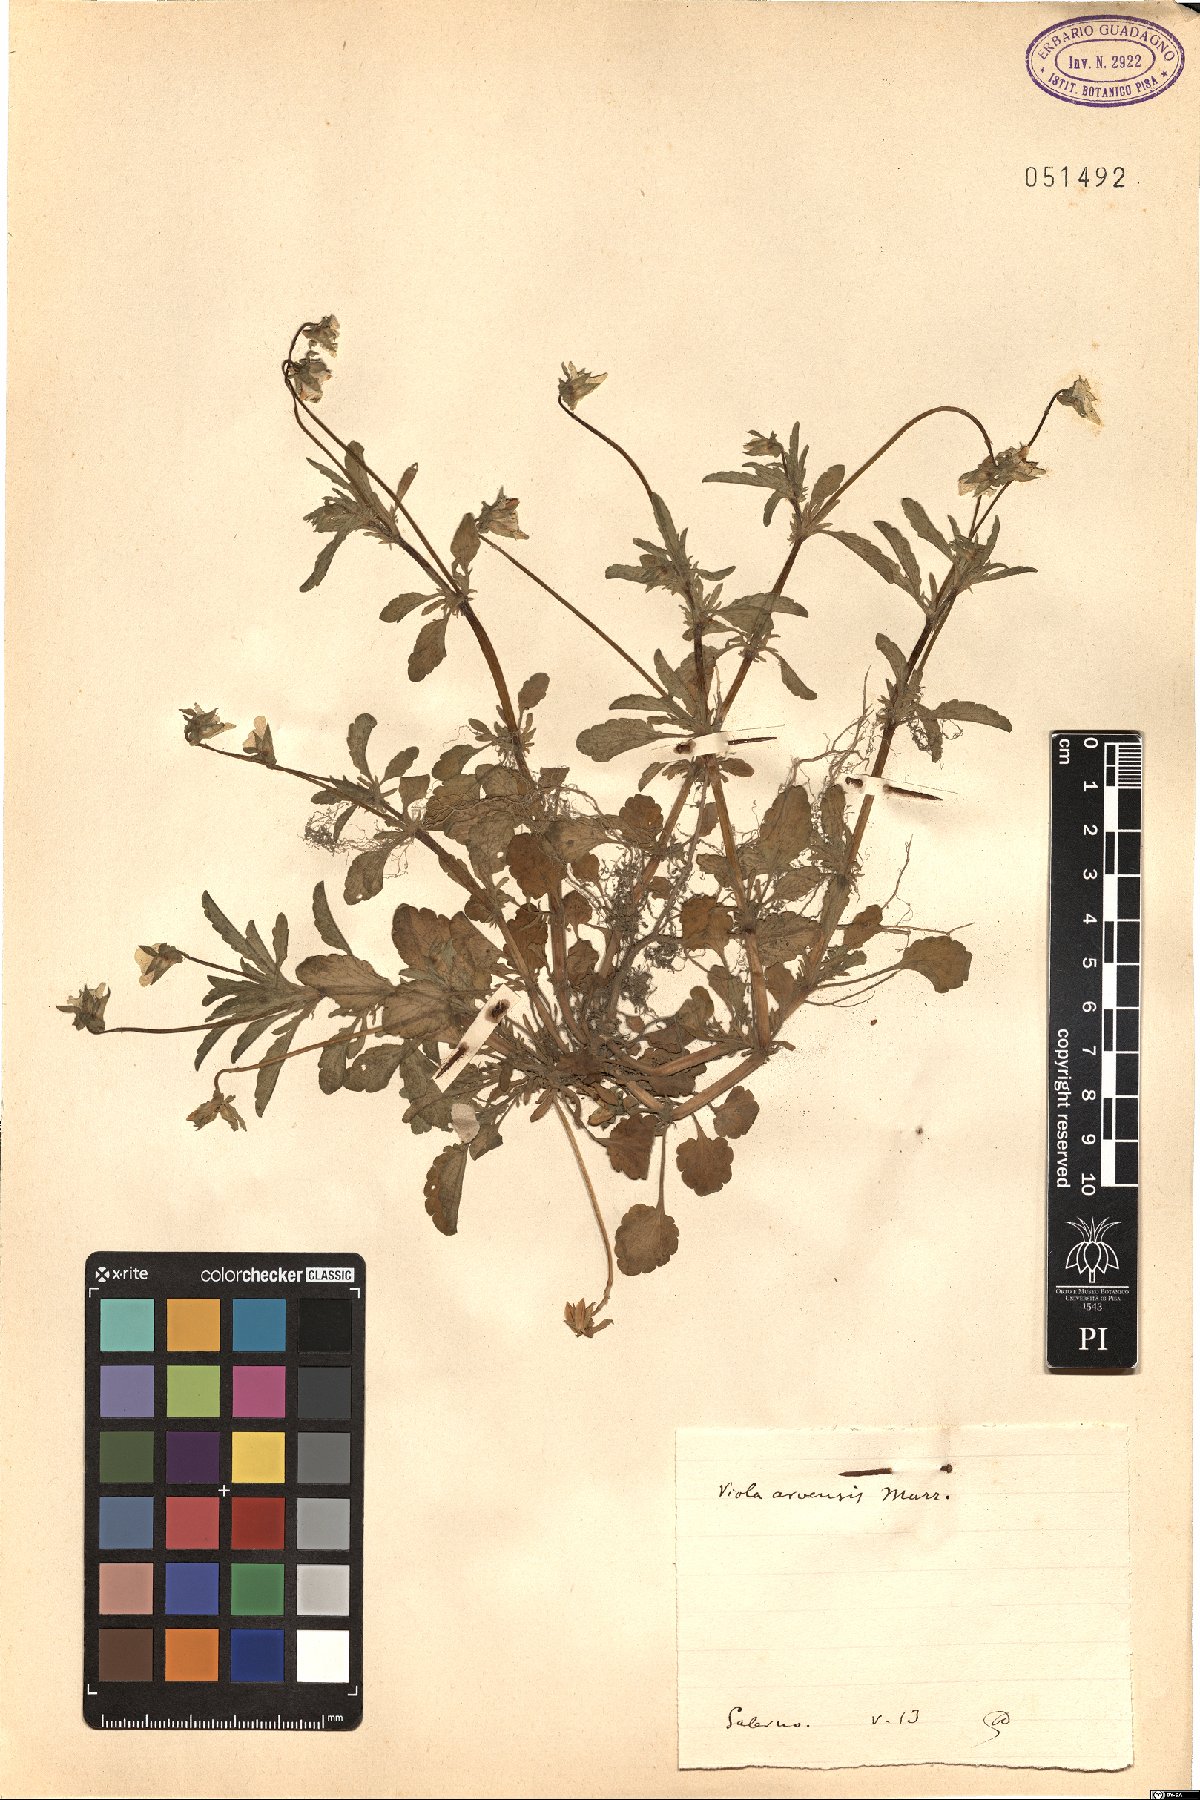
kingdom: Plantae
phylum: Tracheophyta
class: Magnoliopsida
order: Malpighiales
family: Violaceae
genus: Viola
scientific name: Viola arvensis
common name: Field pansy
